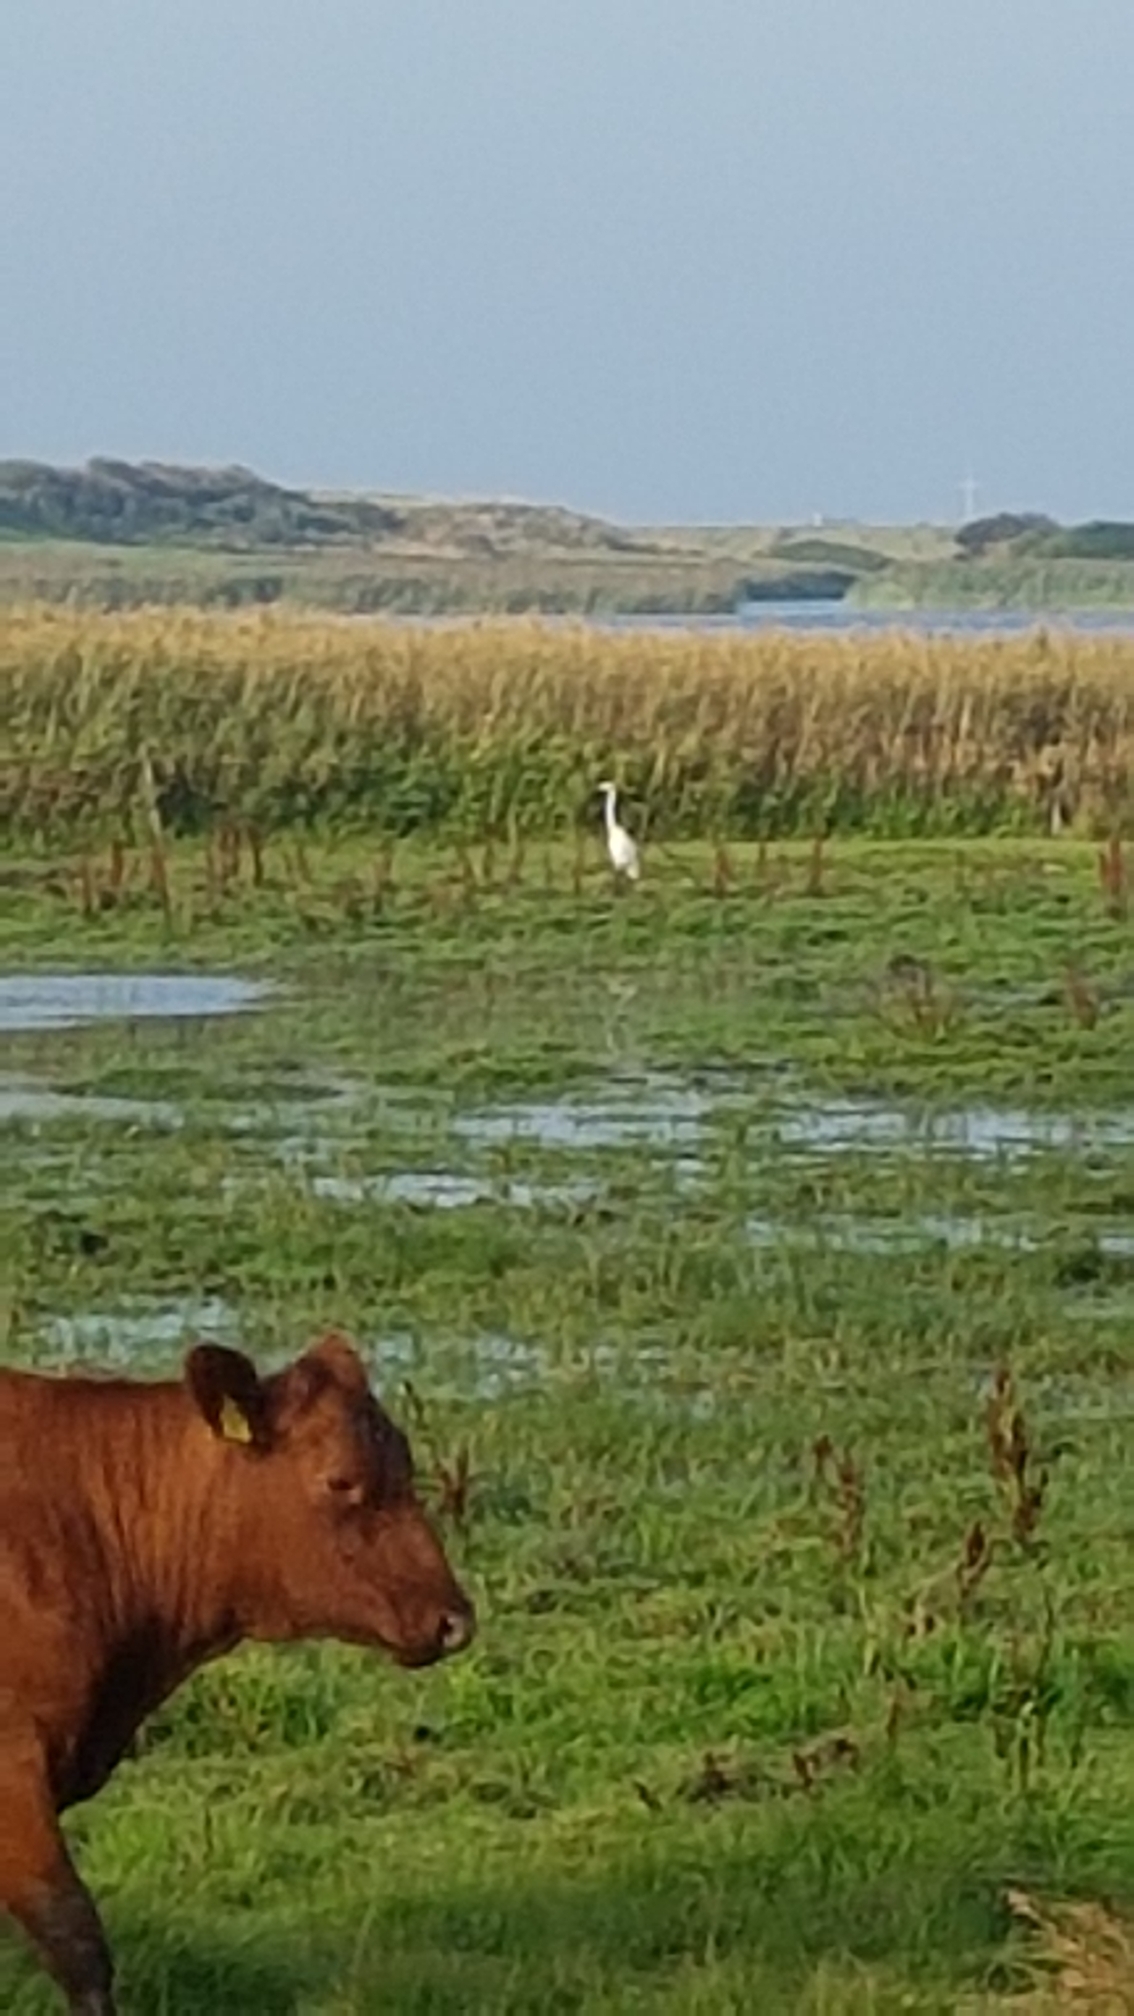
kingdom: Animalia
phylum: Chordata
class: Aves
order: Pelecaniformes
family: Ardeidae
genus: Ardea
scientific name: Ardea alba
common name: Sølvhejre
